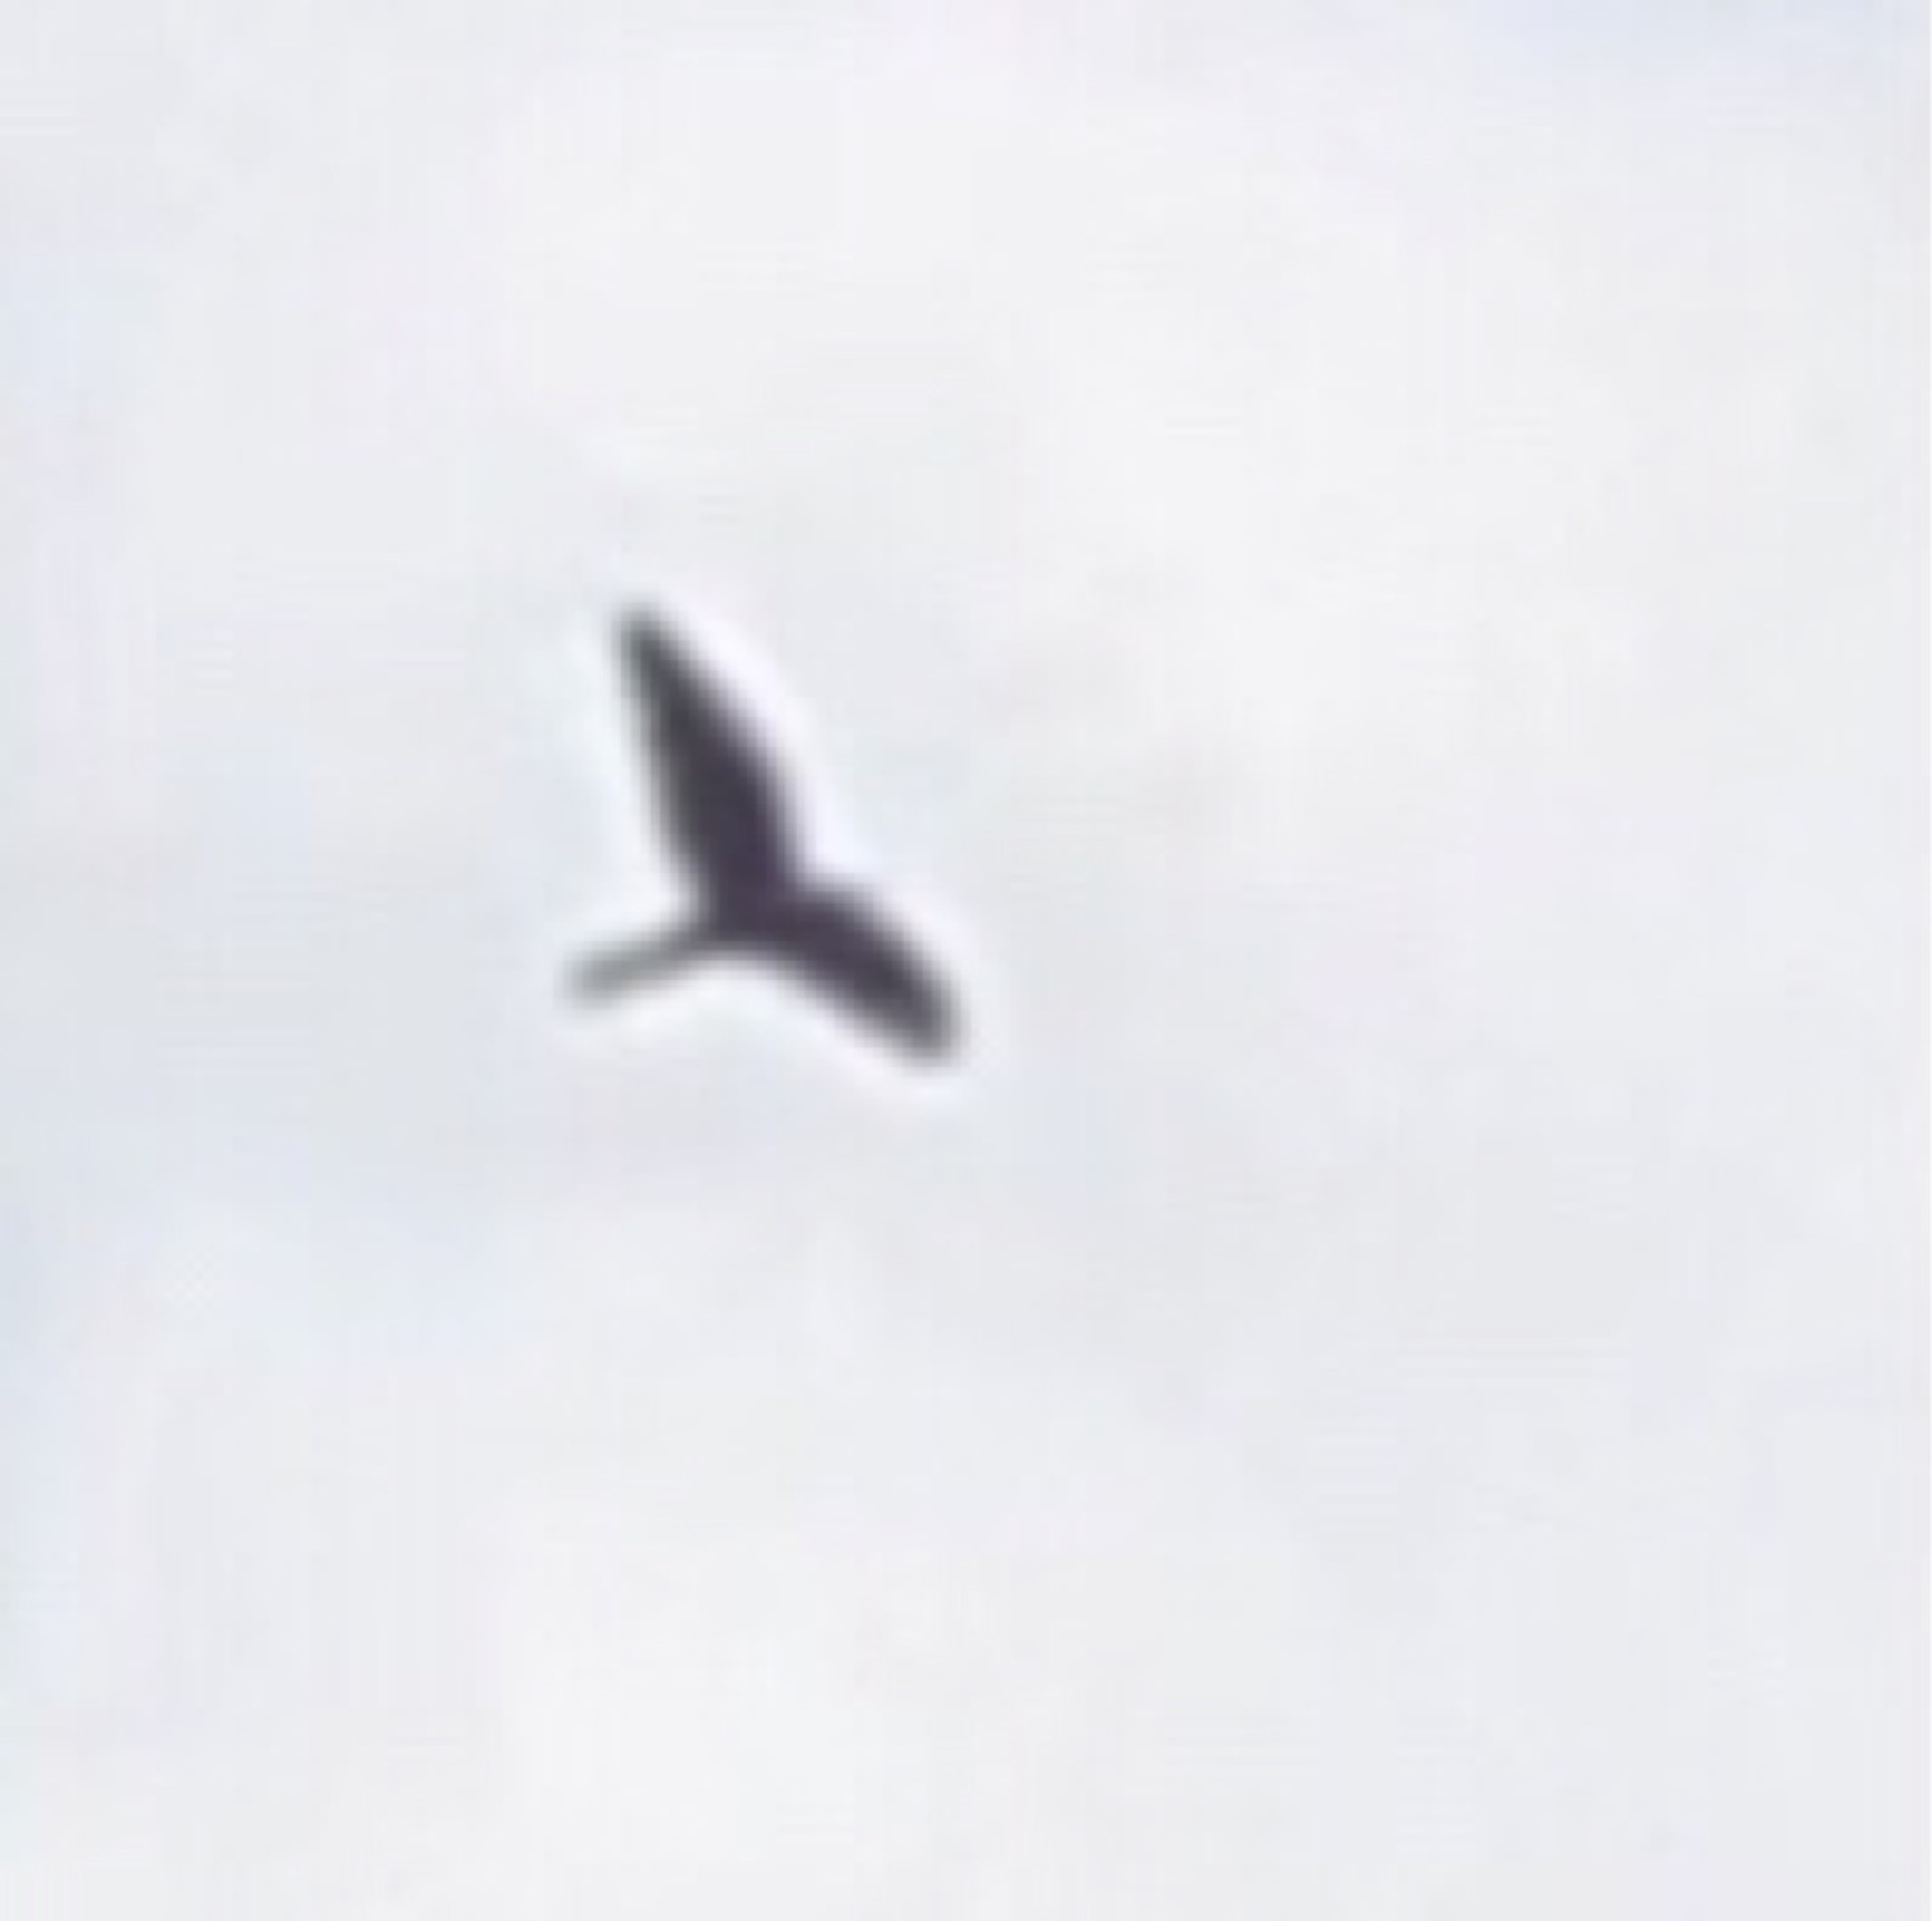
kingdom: Animalia
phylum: Chordata
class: Aves
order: Falconiformes
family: Falconidae
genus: Falco
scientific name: Falco tinnunculus
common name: Tårnfalk
